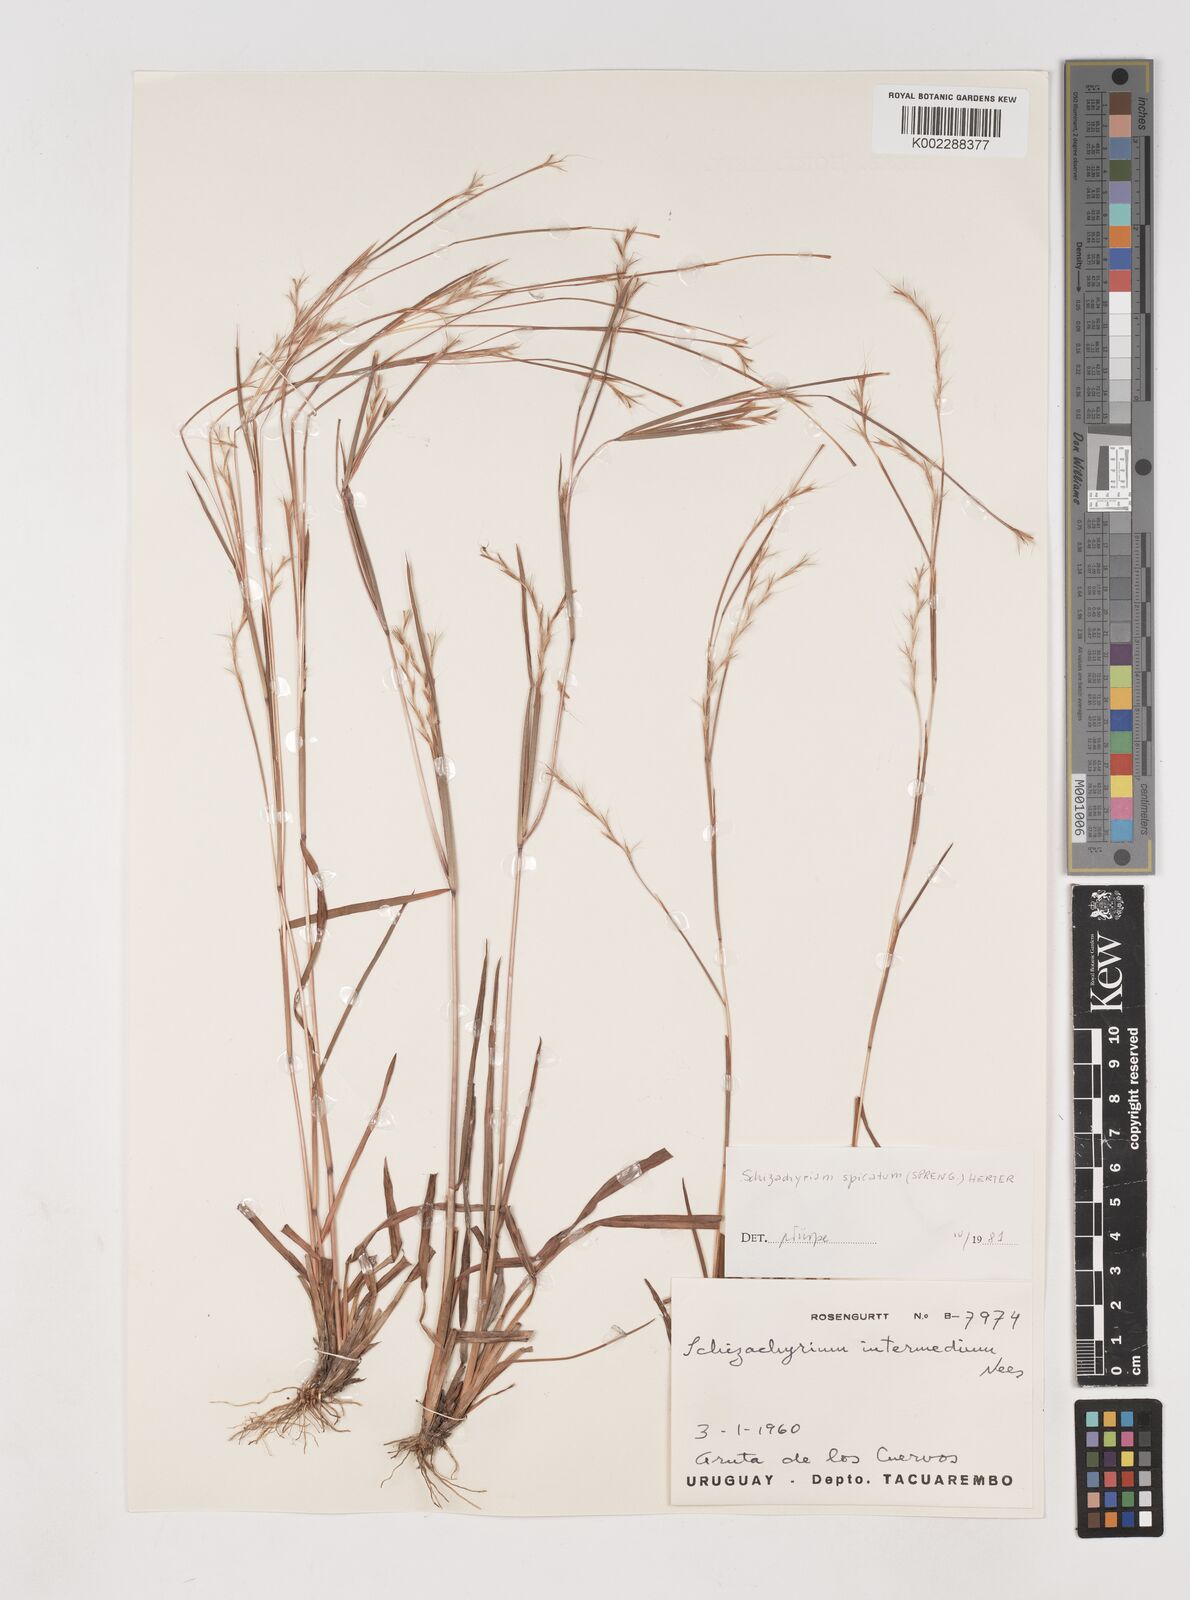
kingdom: Plantae
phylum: Tracheophyta
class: Liliopsida
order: Poales
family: Poaceae
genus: Schizachyrium
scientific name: Schizachyrium spicatum
